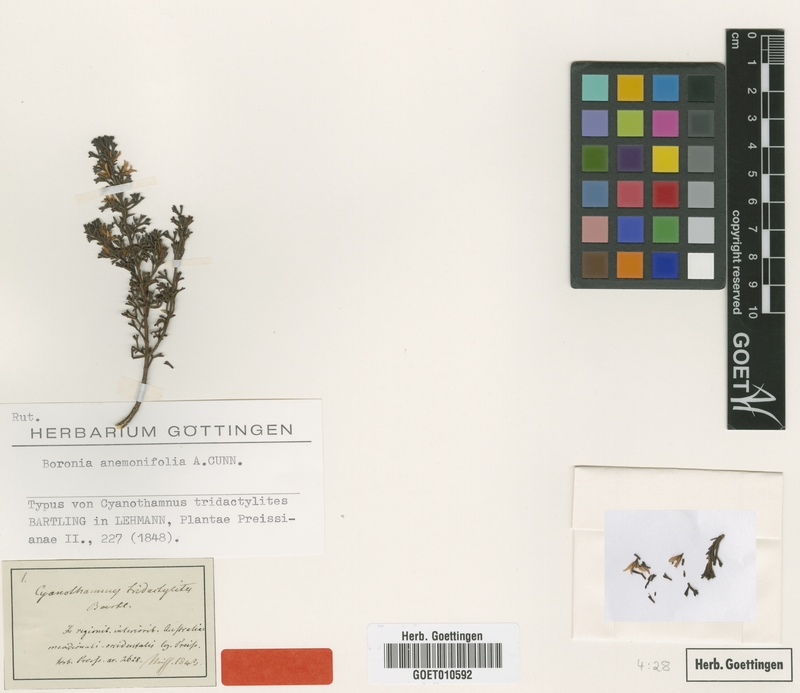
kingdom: Plantae
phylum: Tracheophyta
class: Magnoliopsida
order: Sapindales
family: Rutaceae
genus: Cyanothamnus
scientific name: Cyanothamnus anemonifolius
